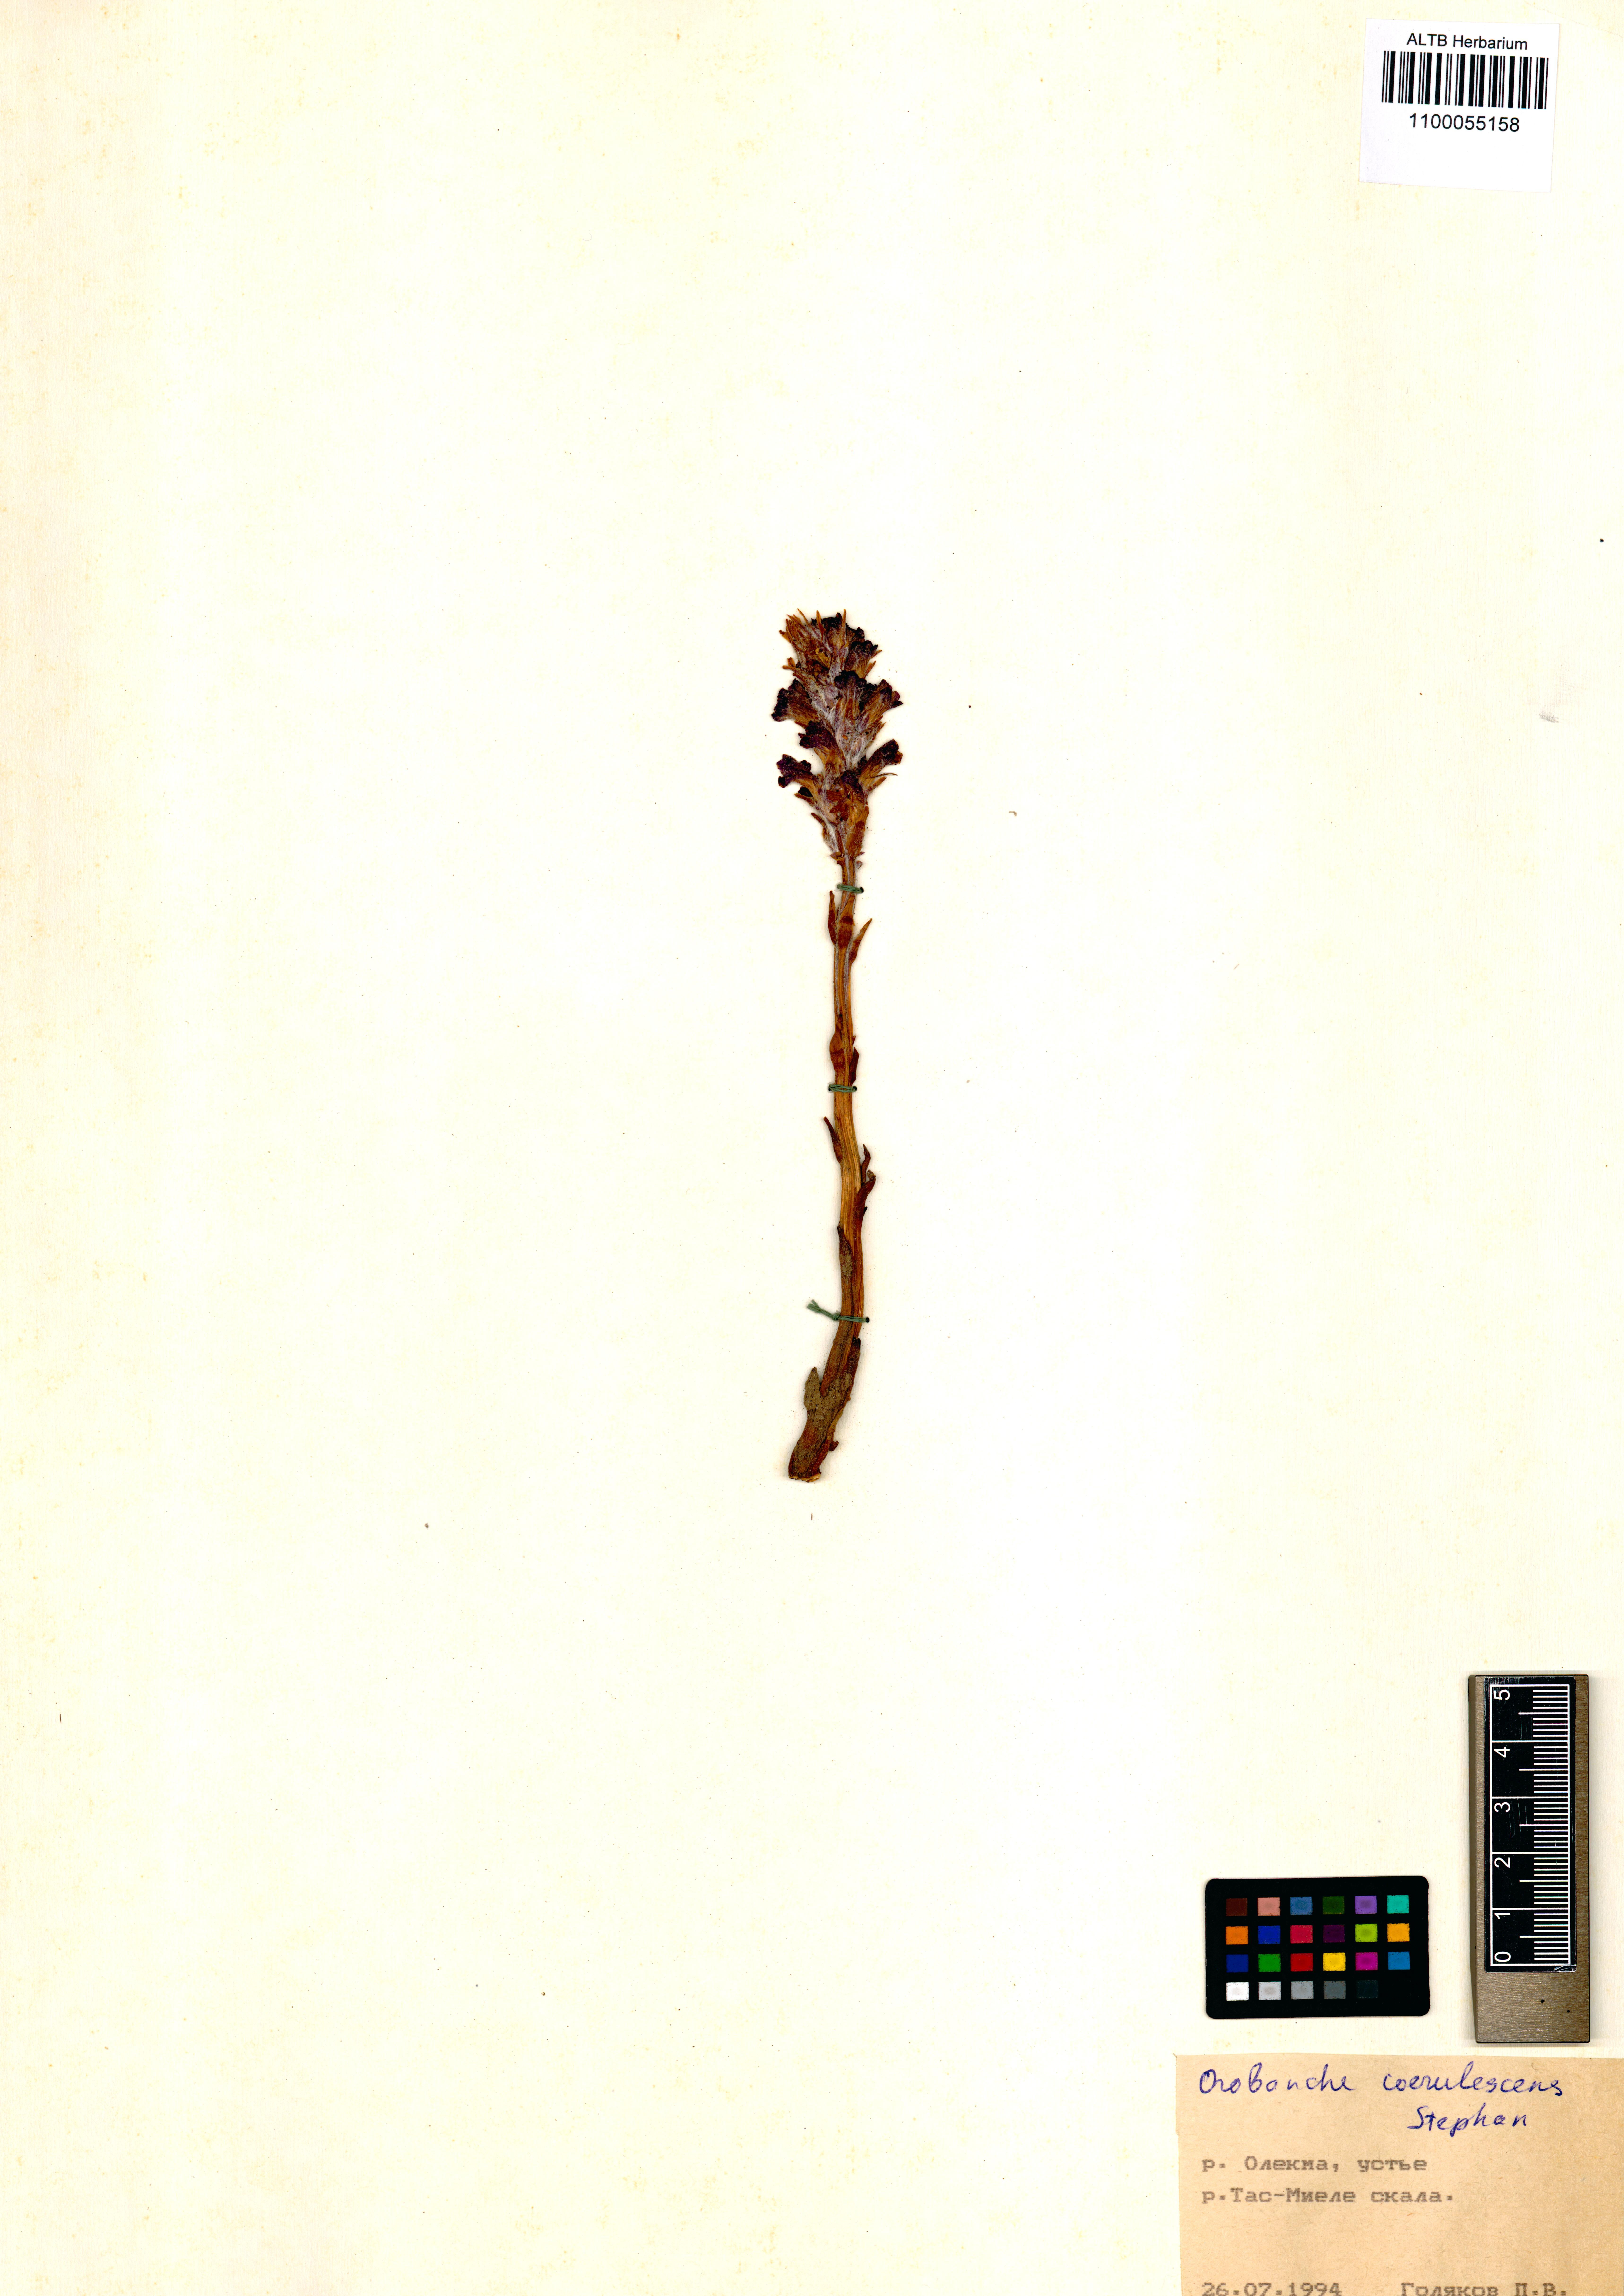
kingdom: Plantae
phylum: Tracheophyta
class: Magnoliopsida
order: Lamiales
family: Orobanchaceae
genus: Orobanche
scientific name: Orobanche coerulescens
